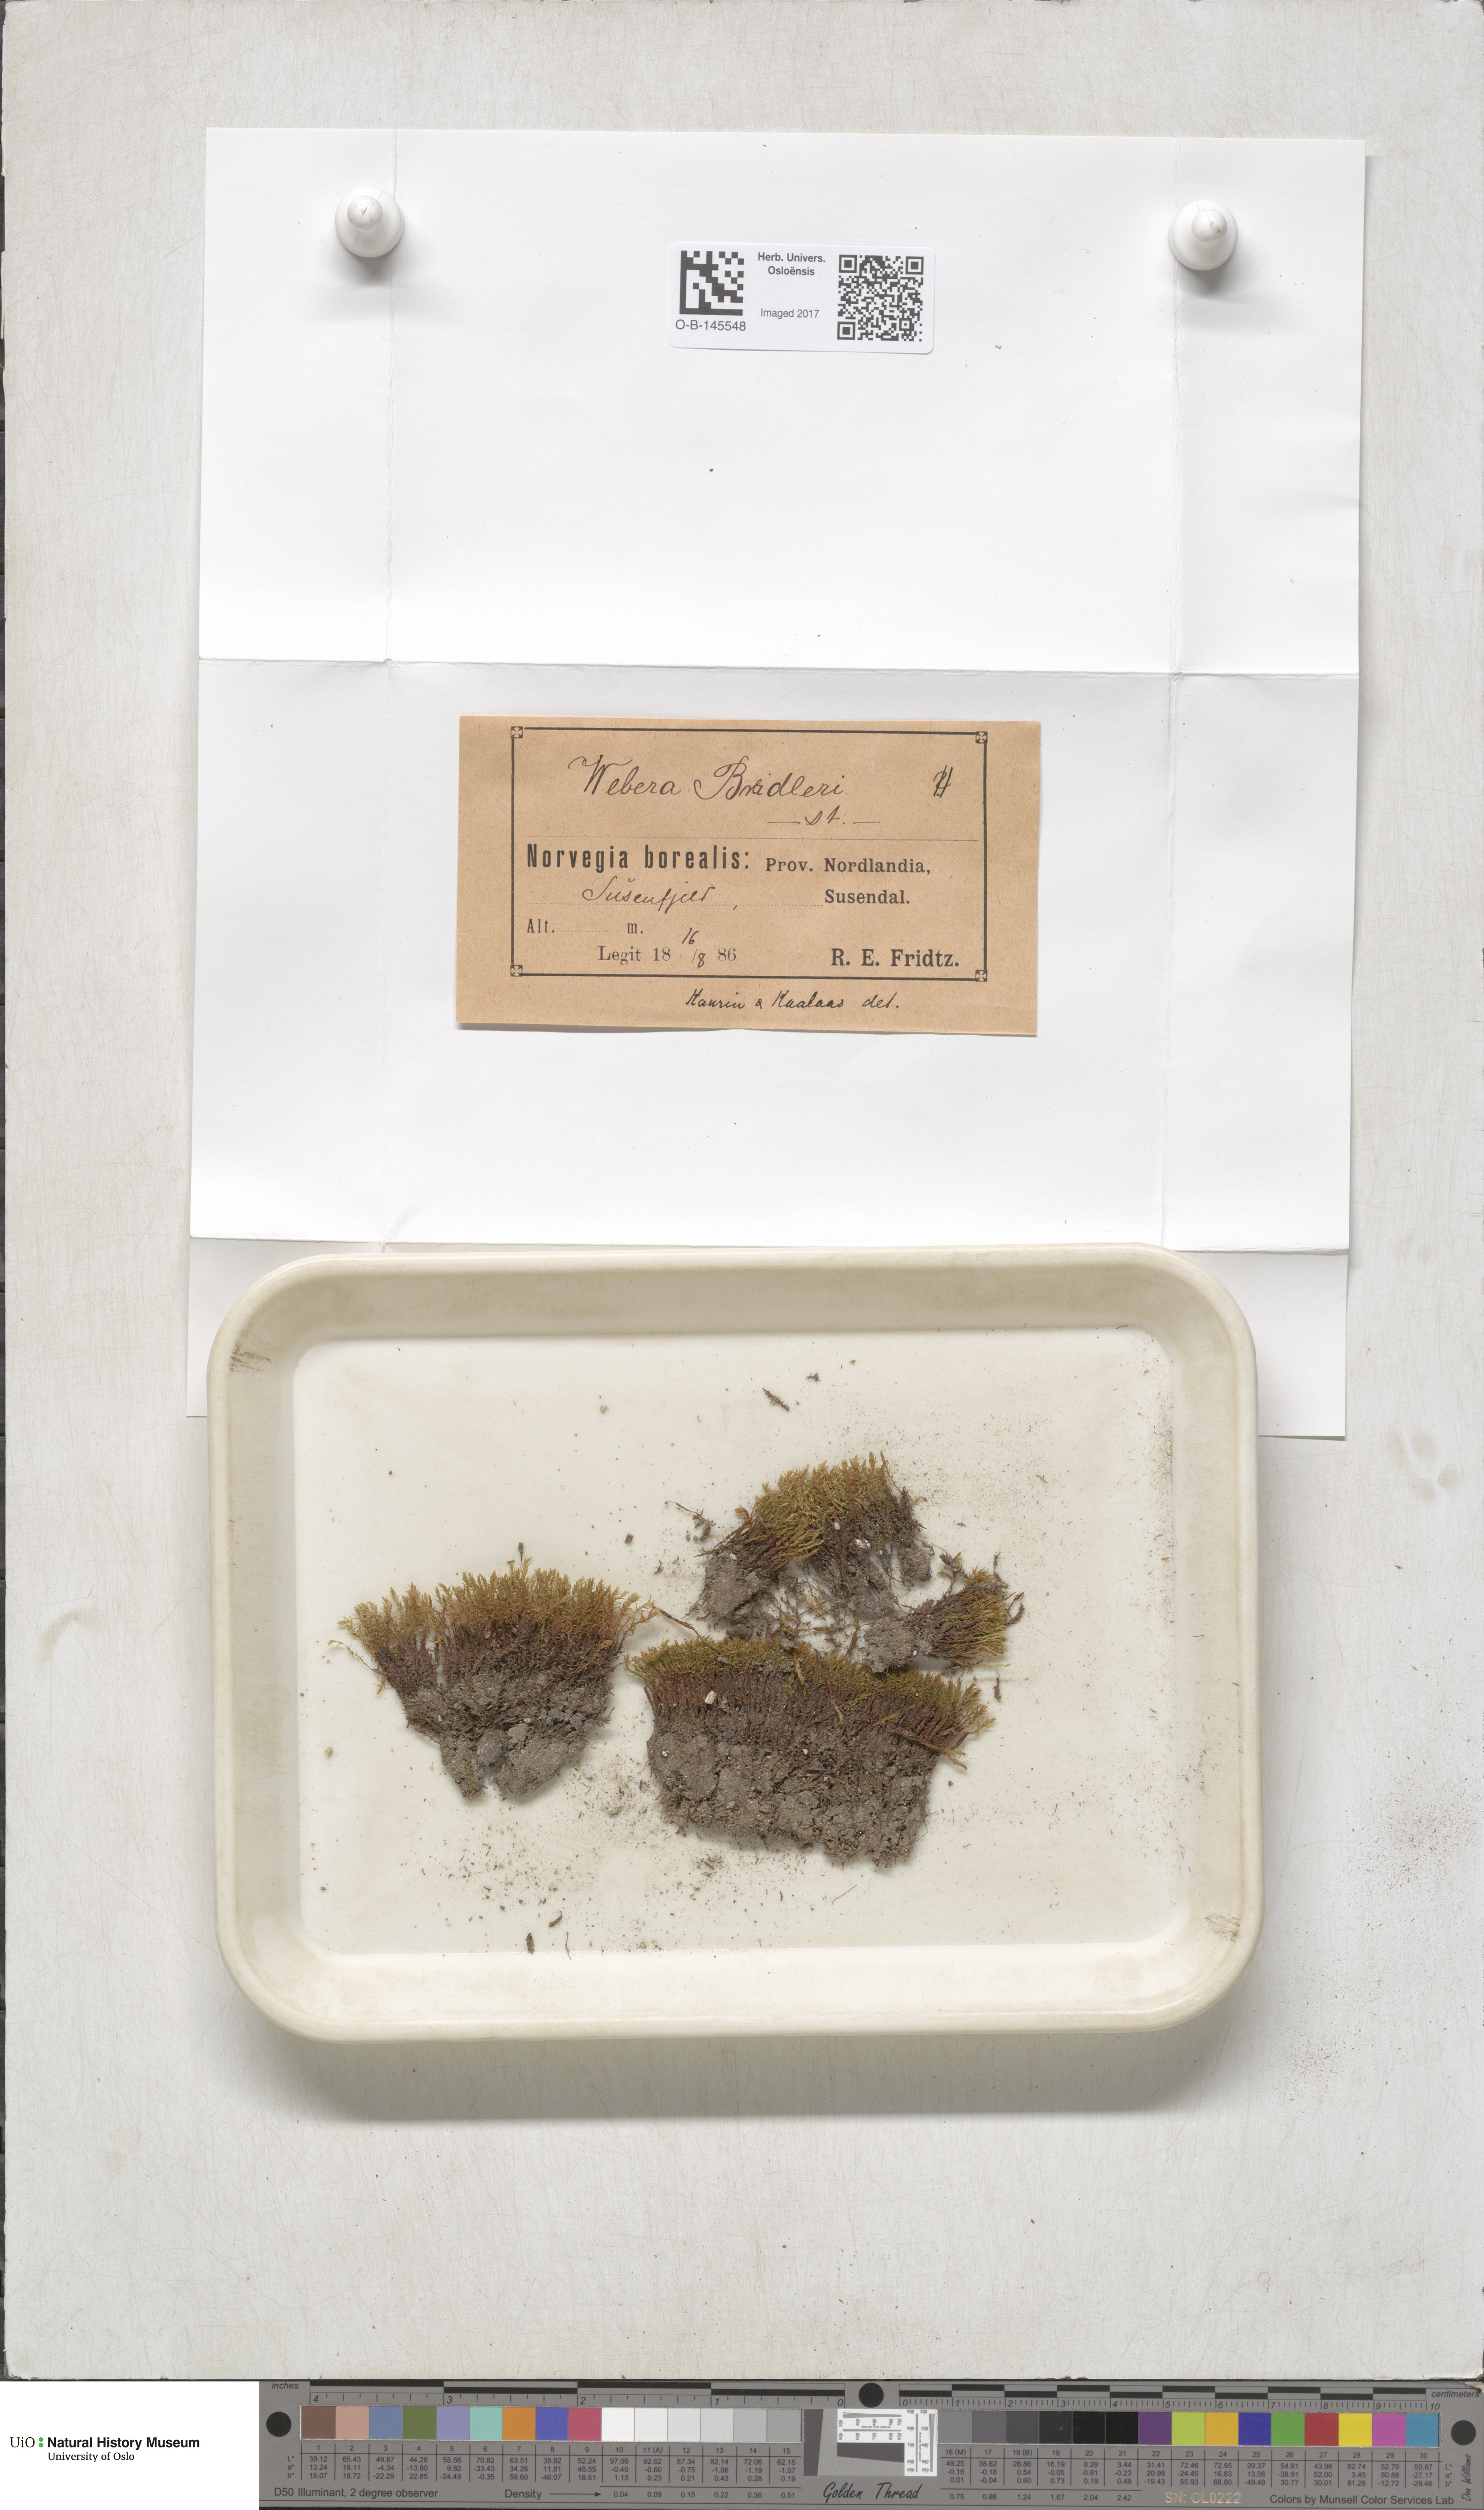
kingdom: Plantae
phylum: Bryophyta
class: Bryopsida
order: Bryales
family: Mniaceae
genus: Pohlia
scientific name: Pohlia ludwigii
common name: Ludwig's thread-moss
